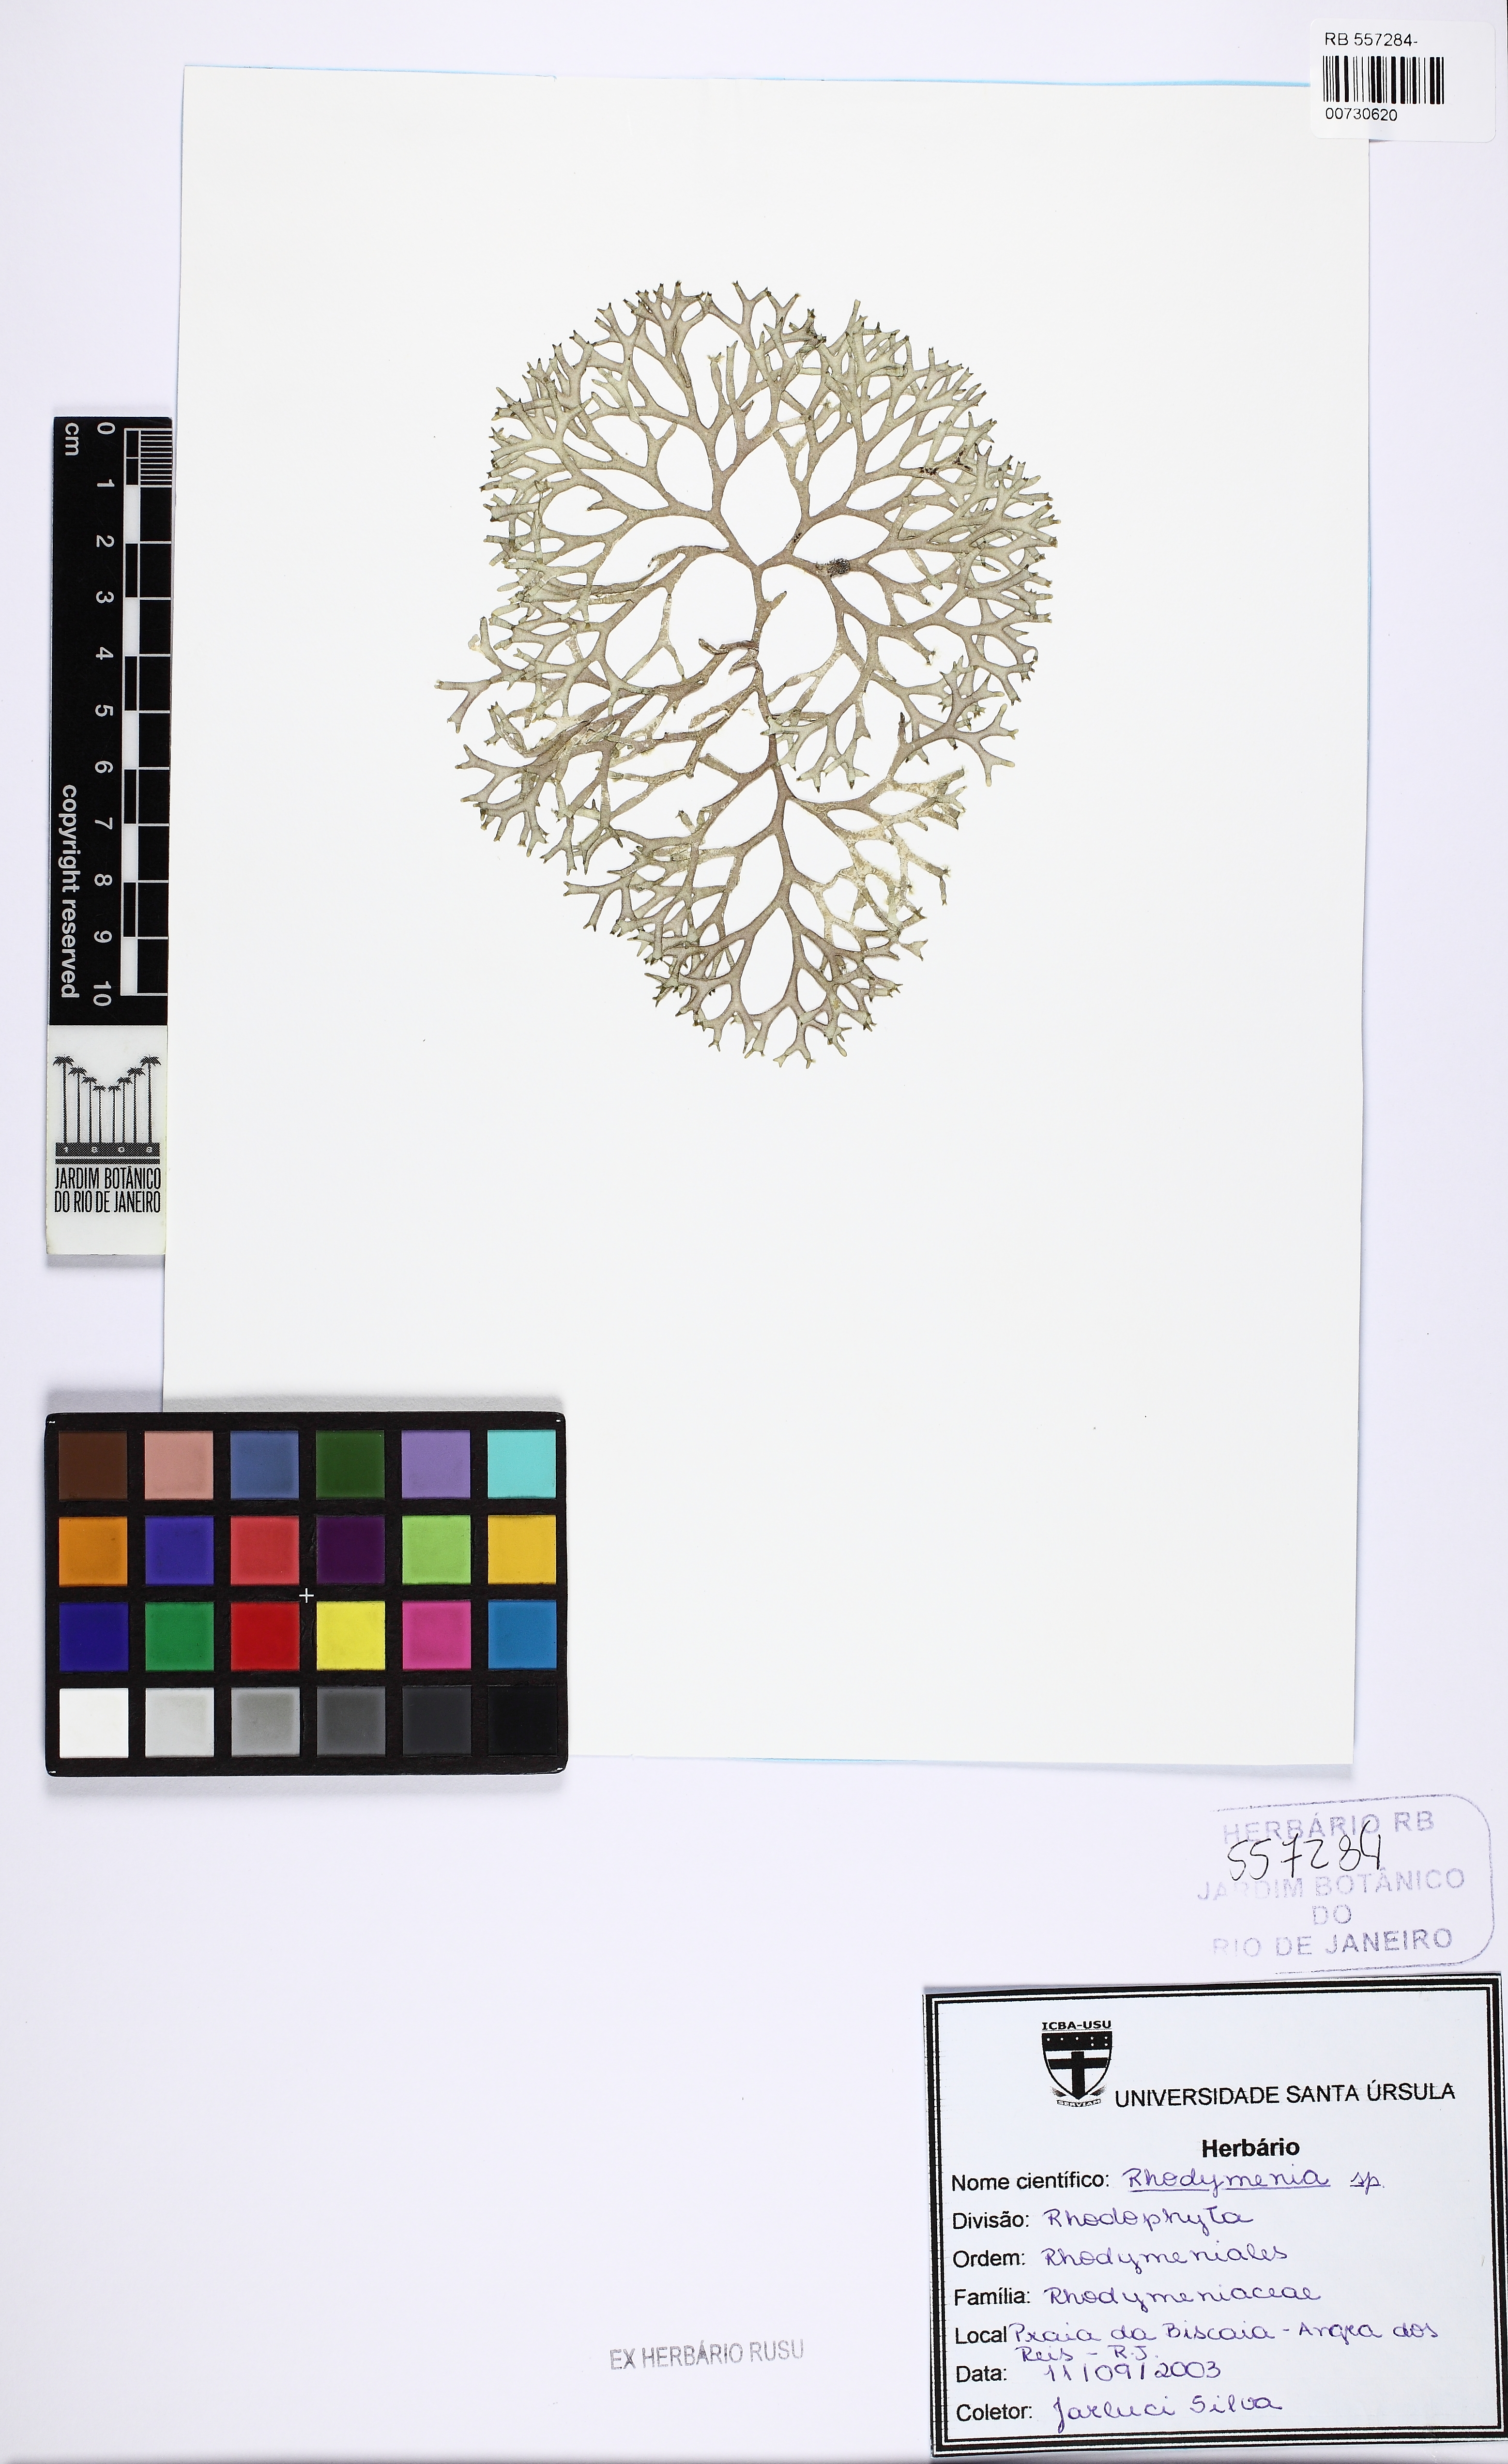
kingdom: Plantae
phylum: Rhodophyta
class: Florideophyceae
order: Rhodymeniales
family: Rhodymeniaceae
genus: Rhodymenia
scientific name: Rhodymenia
